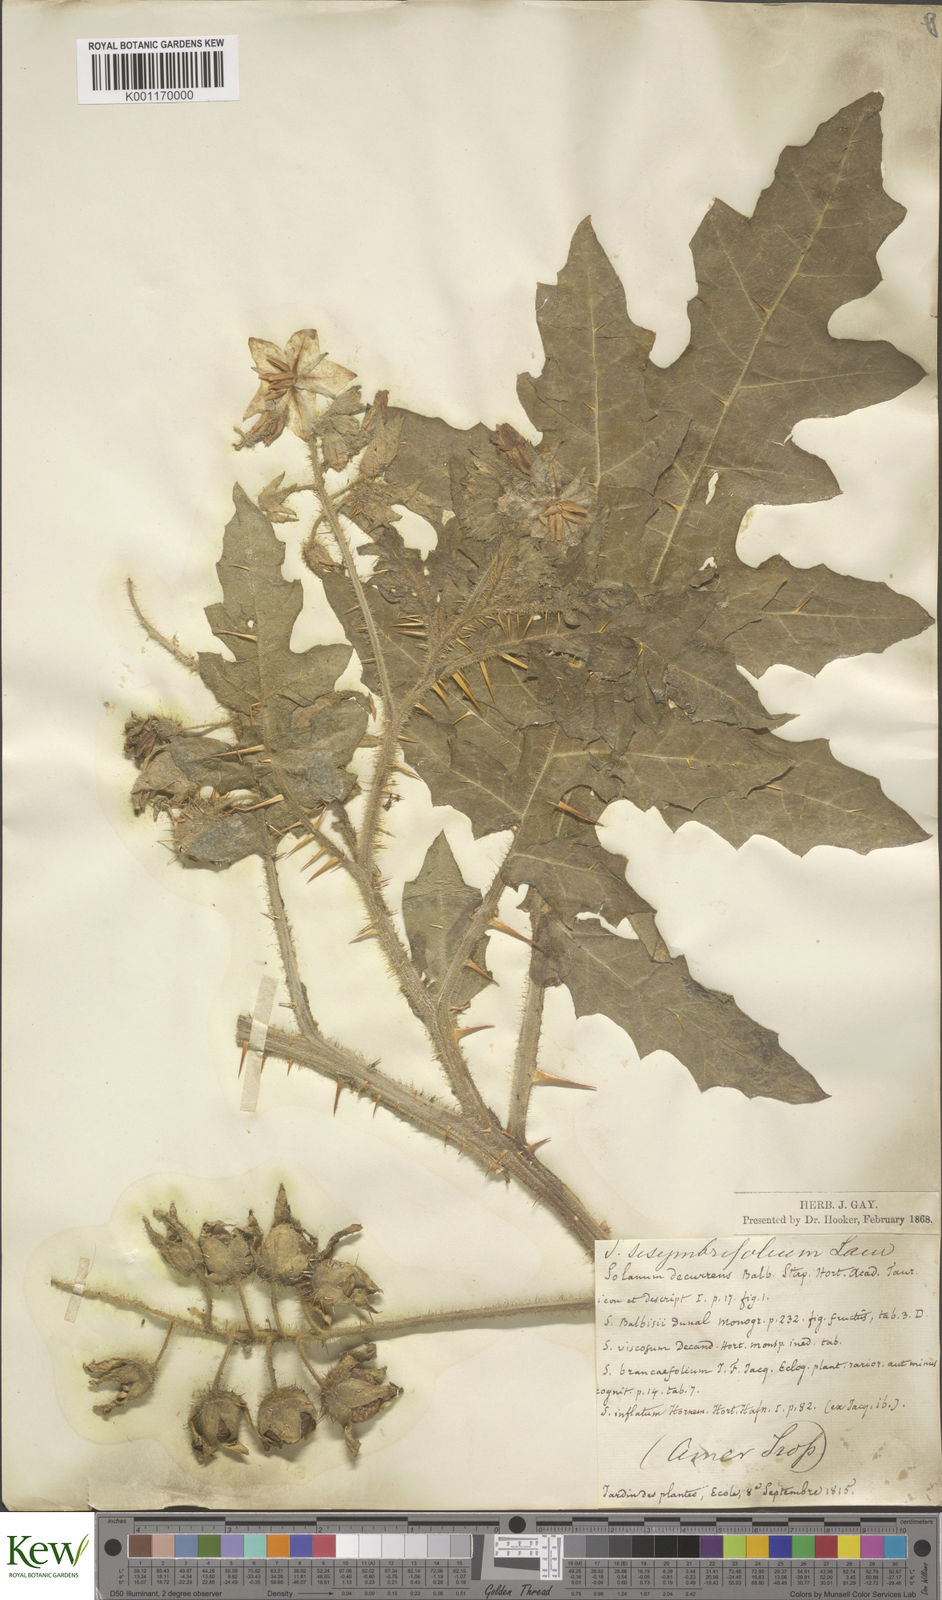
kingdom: Plantae
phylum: Tracheophyta
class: Magnoliopsida
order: Solanales
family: Solanaceae
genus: Solanum
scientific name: Solanum sisymbriifolium
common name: Red buffalo-bur
